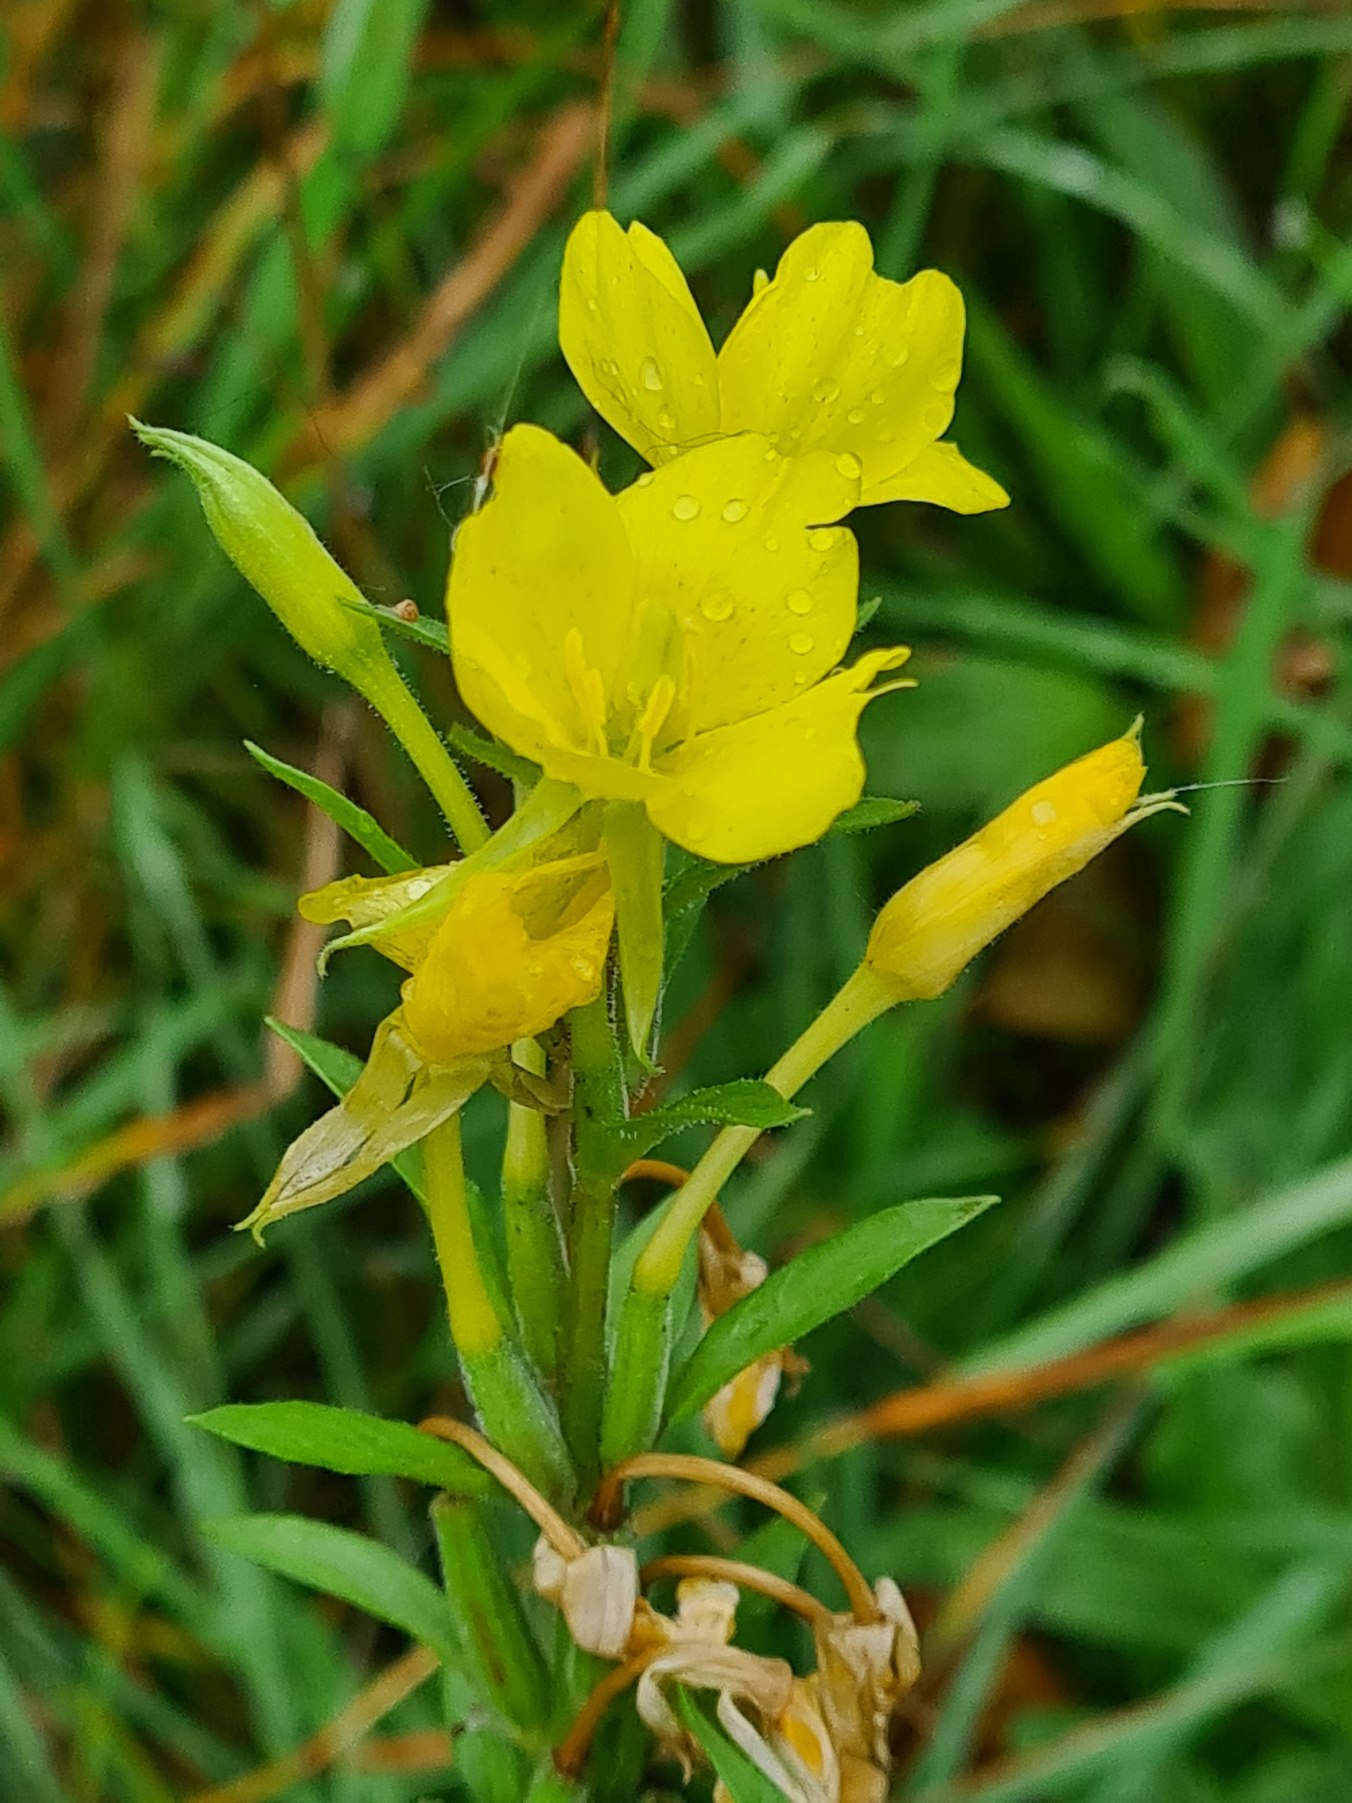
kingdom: Plantae
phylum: Tracheophyta
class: Magnoliopsida
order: Myrtales
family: Onagraceae
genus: Oenothera
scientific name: Oenothera
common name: Natlysslægten
